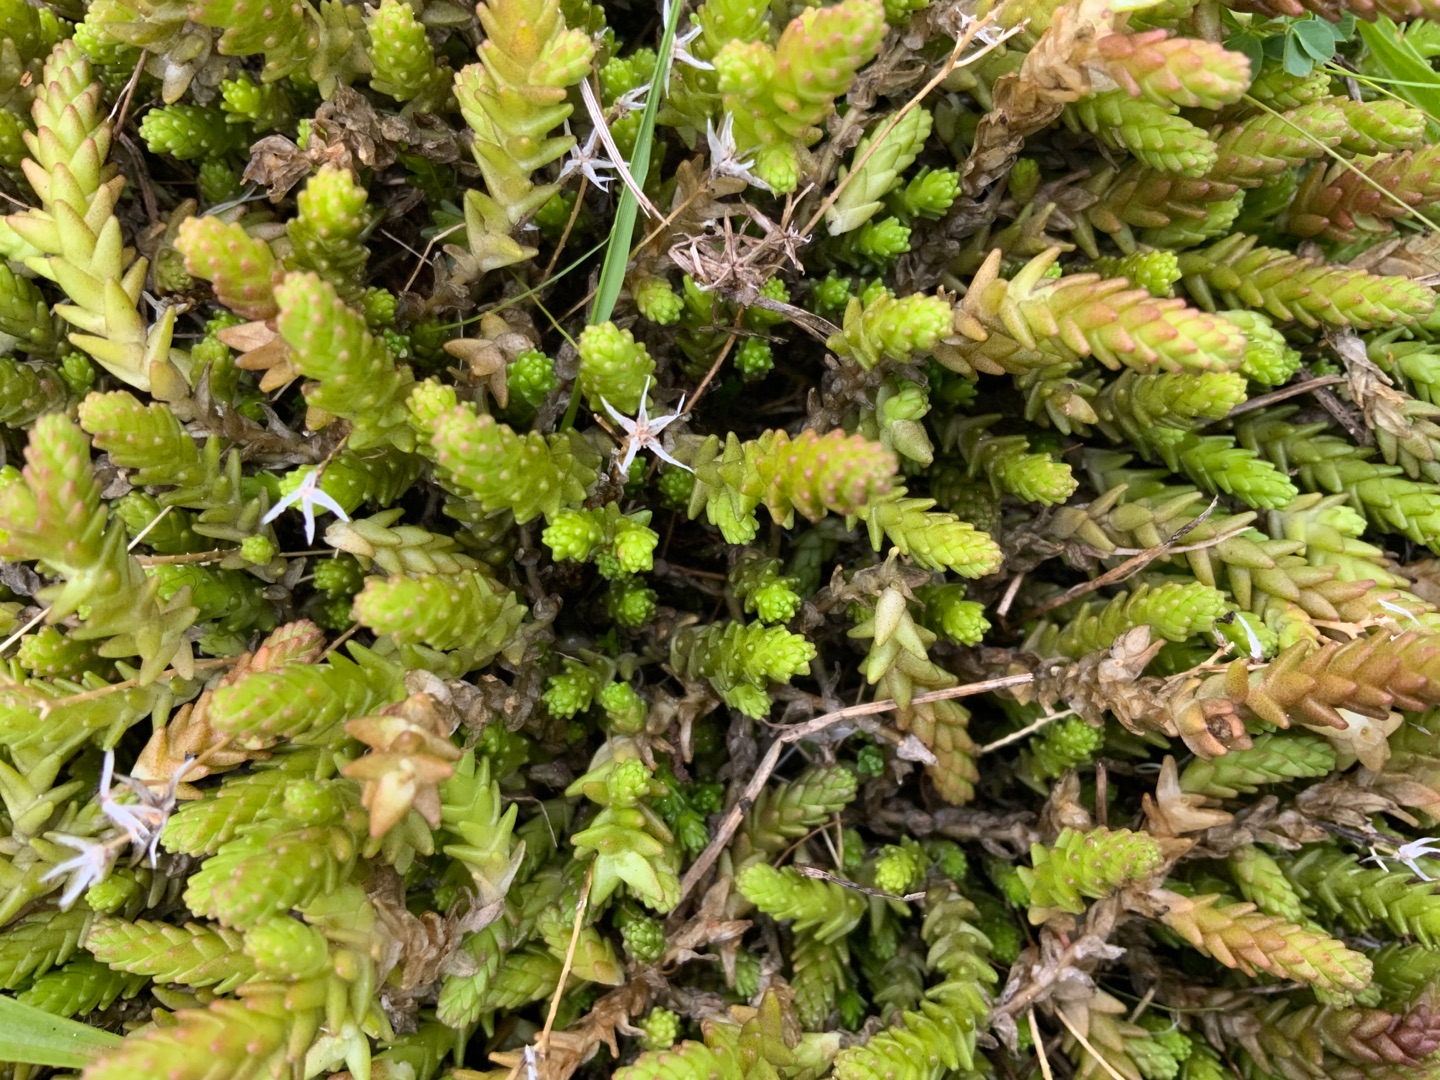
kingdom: Plantae
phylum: Tracheophyta
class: Magnoliopsida
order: Saxifragales
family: Crassulaceae
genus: Sedum
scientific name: Sedum acre
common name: Bidende stenurt
